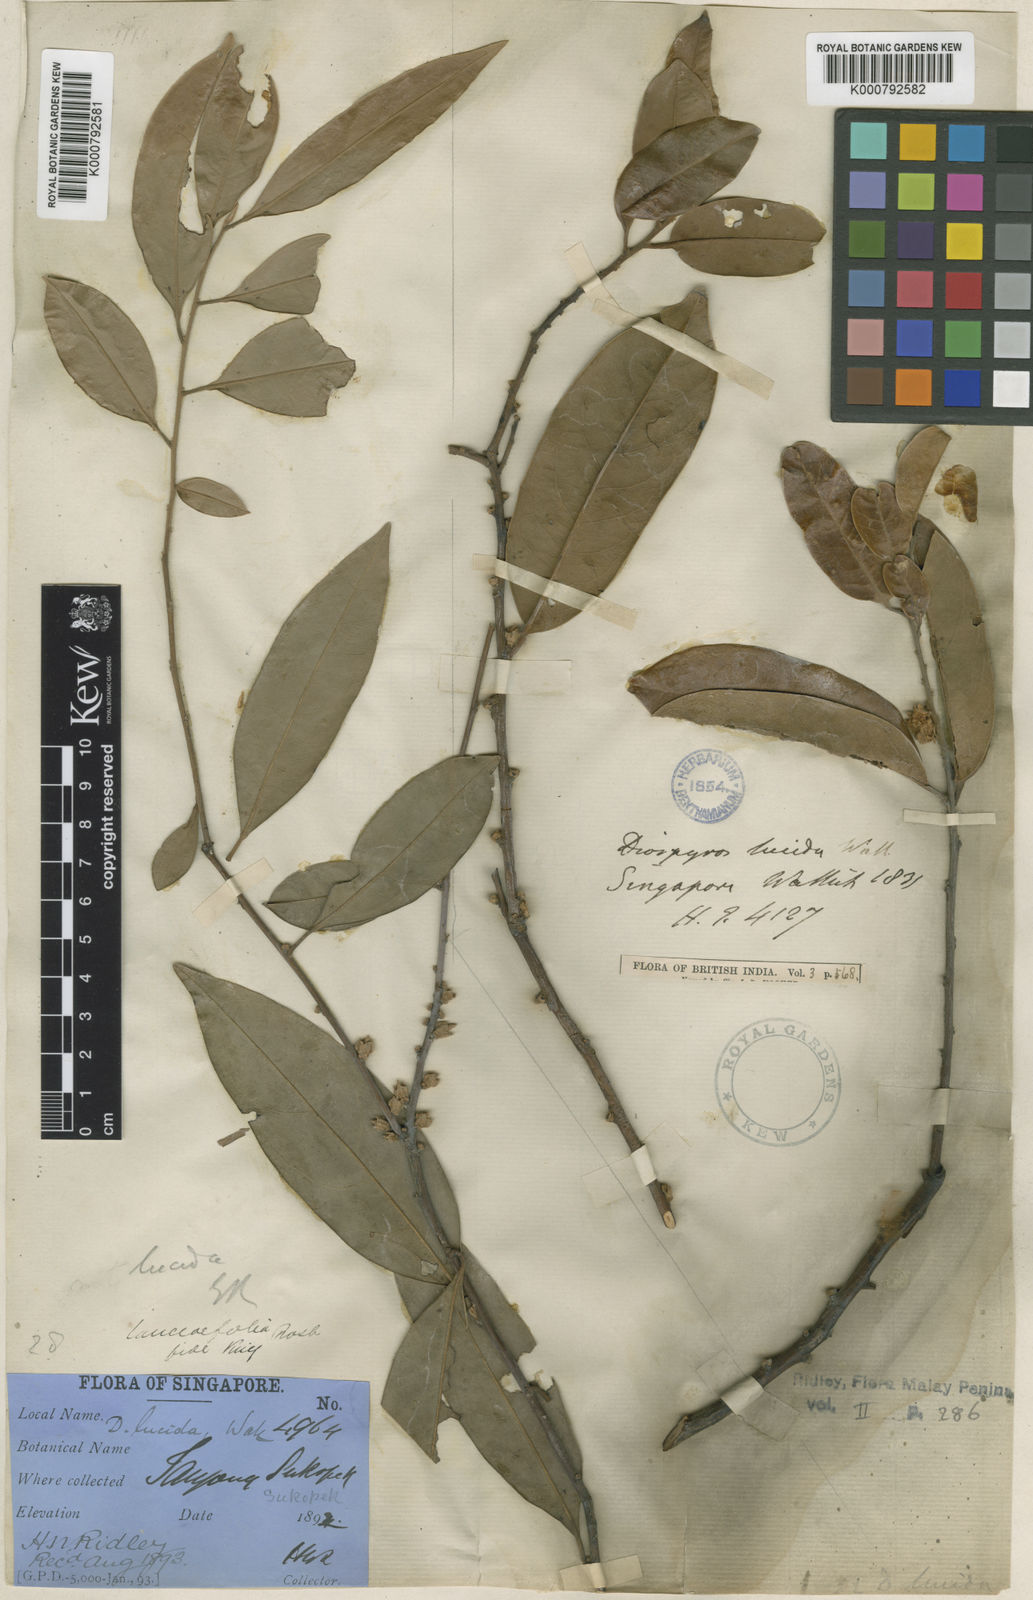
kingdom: Plantae
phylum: Tracheophyta
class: Magnoliopsida
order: Ericales
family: Ebenaceae
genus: Diospyros
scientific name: Diospyros lanceifolia
